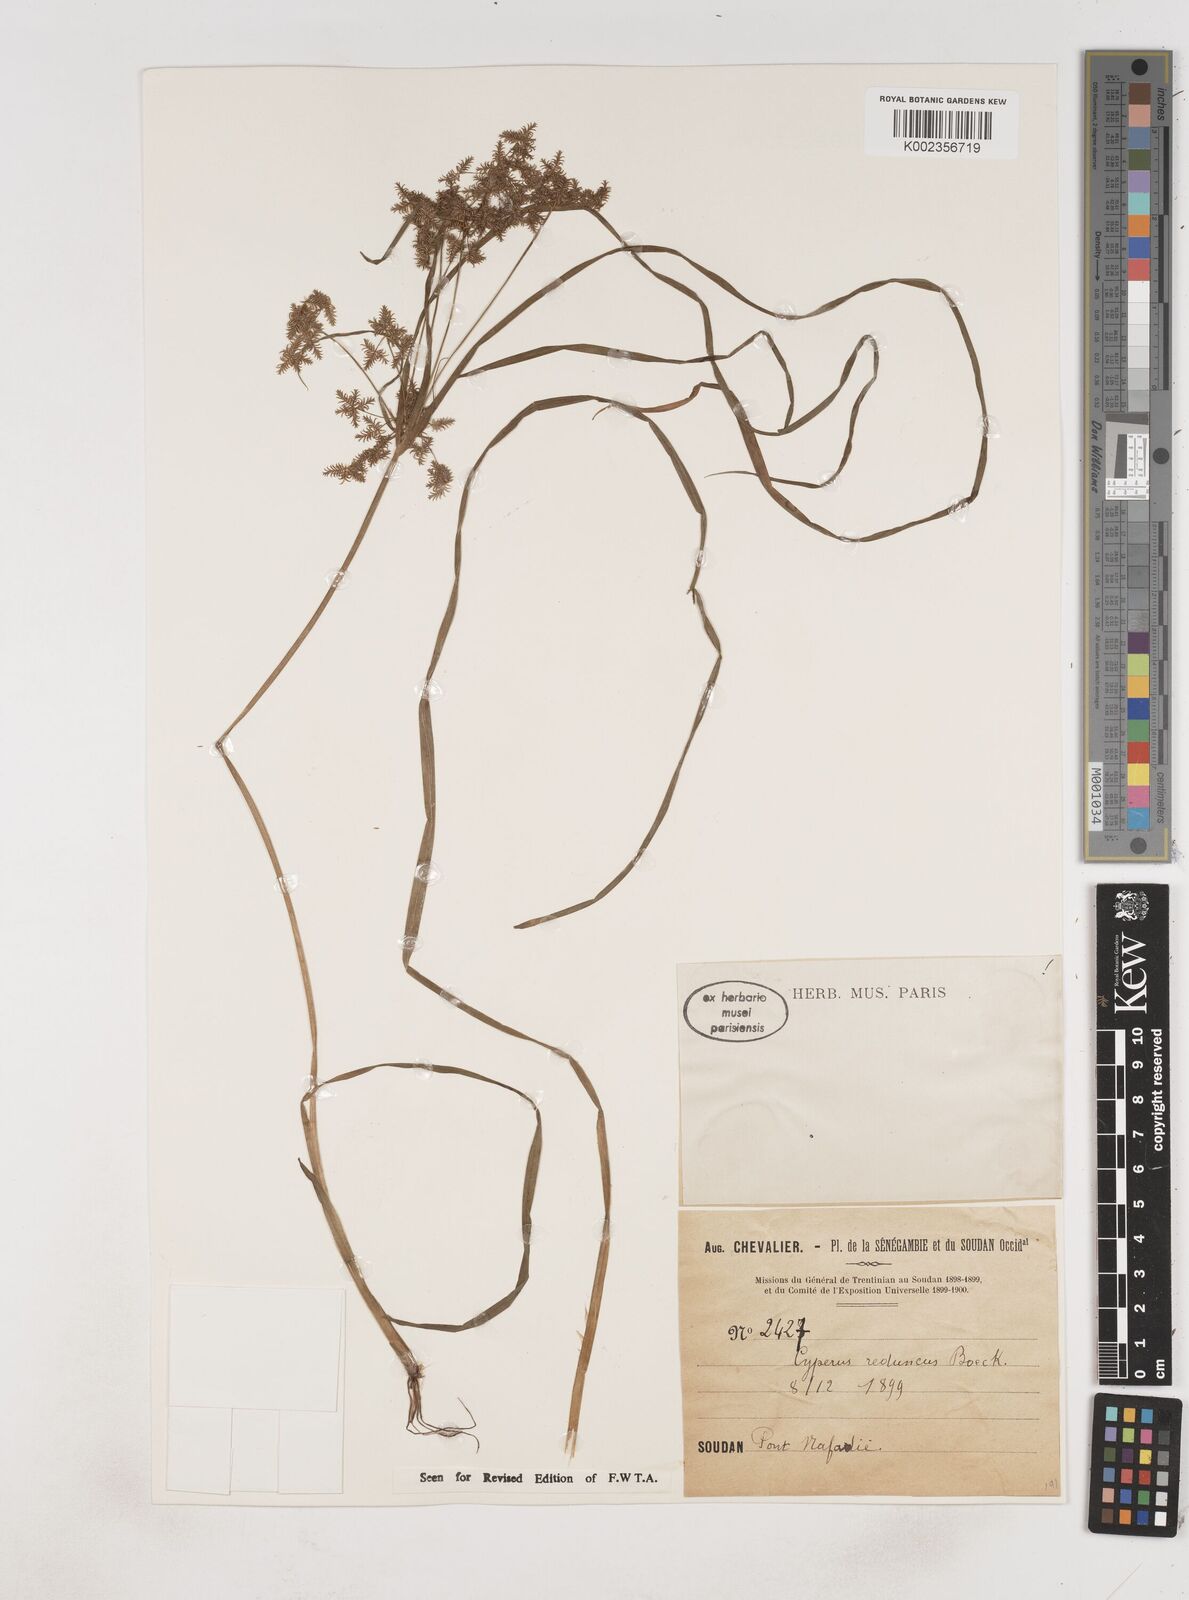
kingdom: Plantae
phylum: Tracheophyta
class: Liliopsida
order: Poales
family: Cyperaceae
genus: Cyperus
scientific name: Cyperus reduncus
